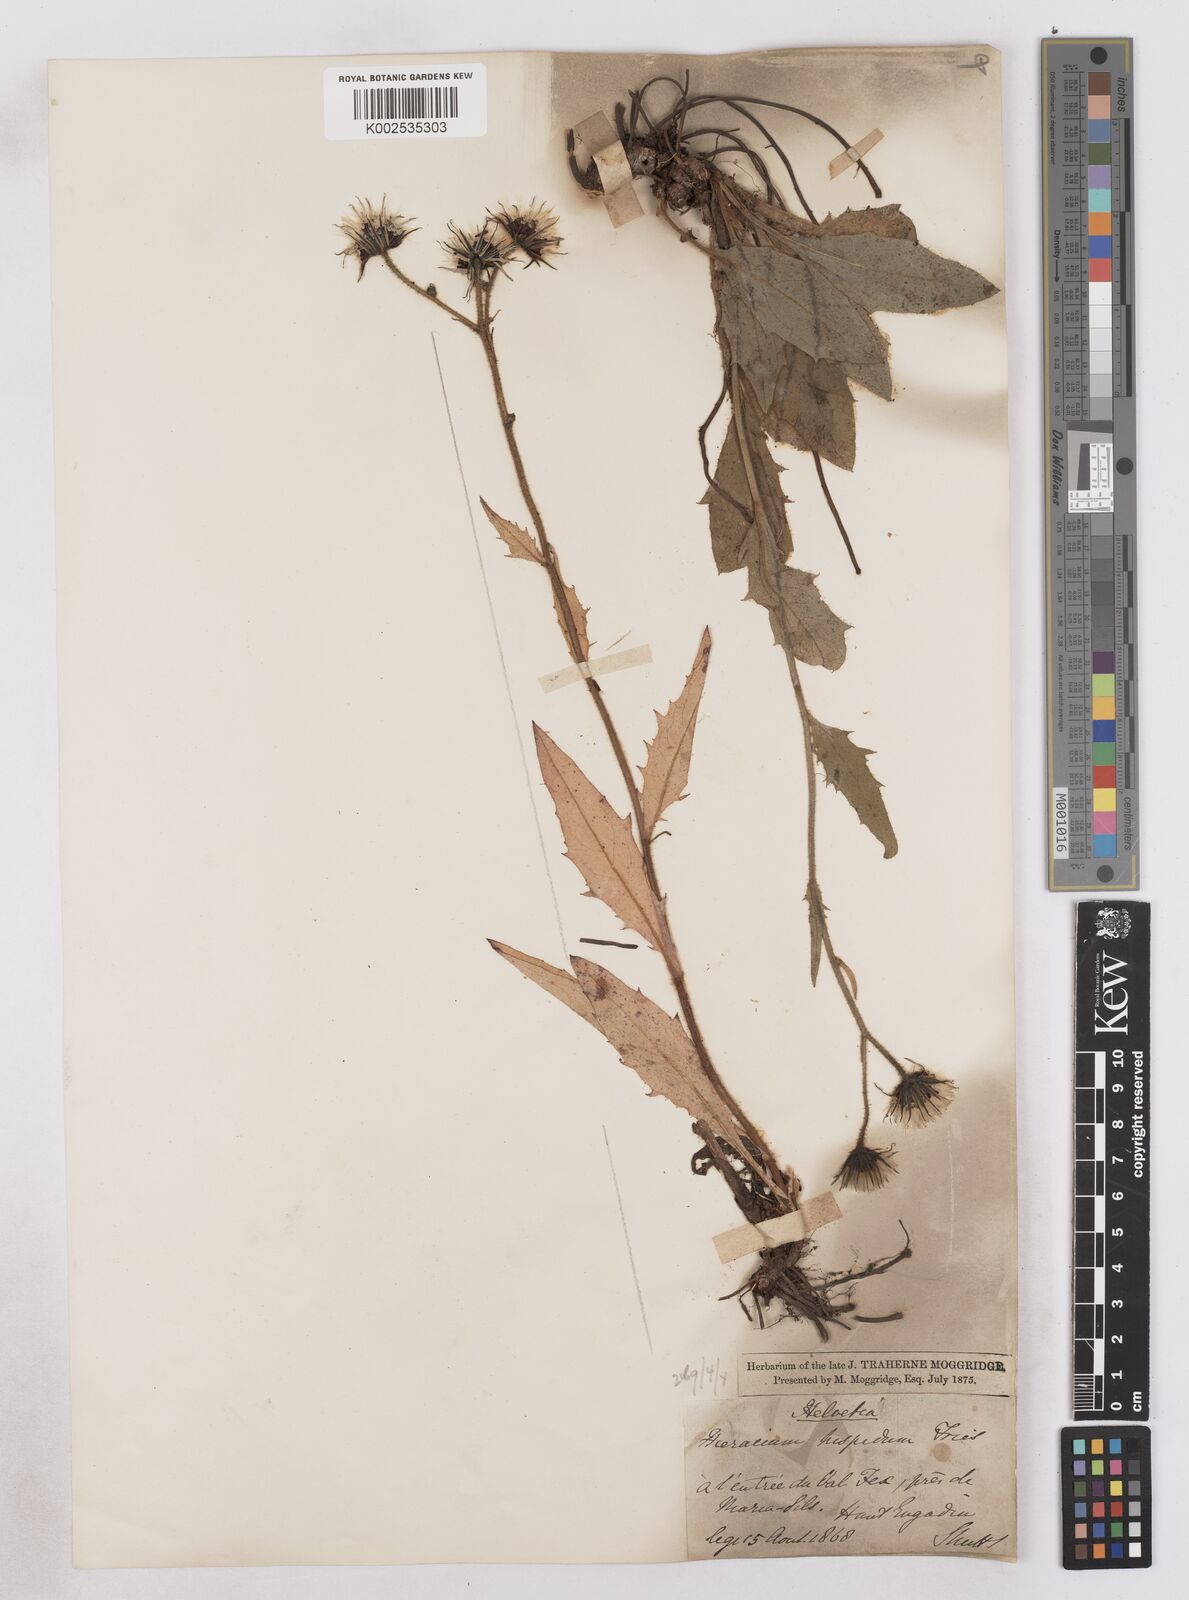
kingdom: Plantae
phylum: Tracheophyta
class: Magnoliopsida
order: Asterales
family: Asteraceae
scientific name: Asteraceae
